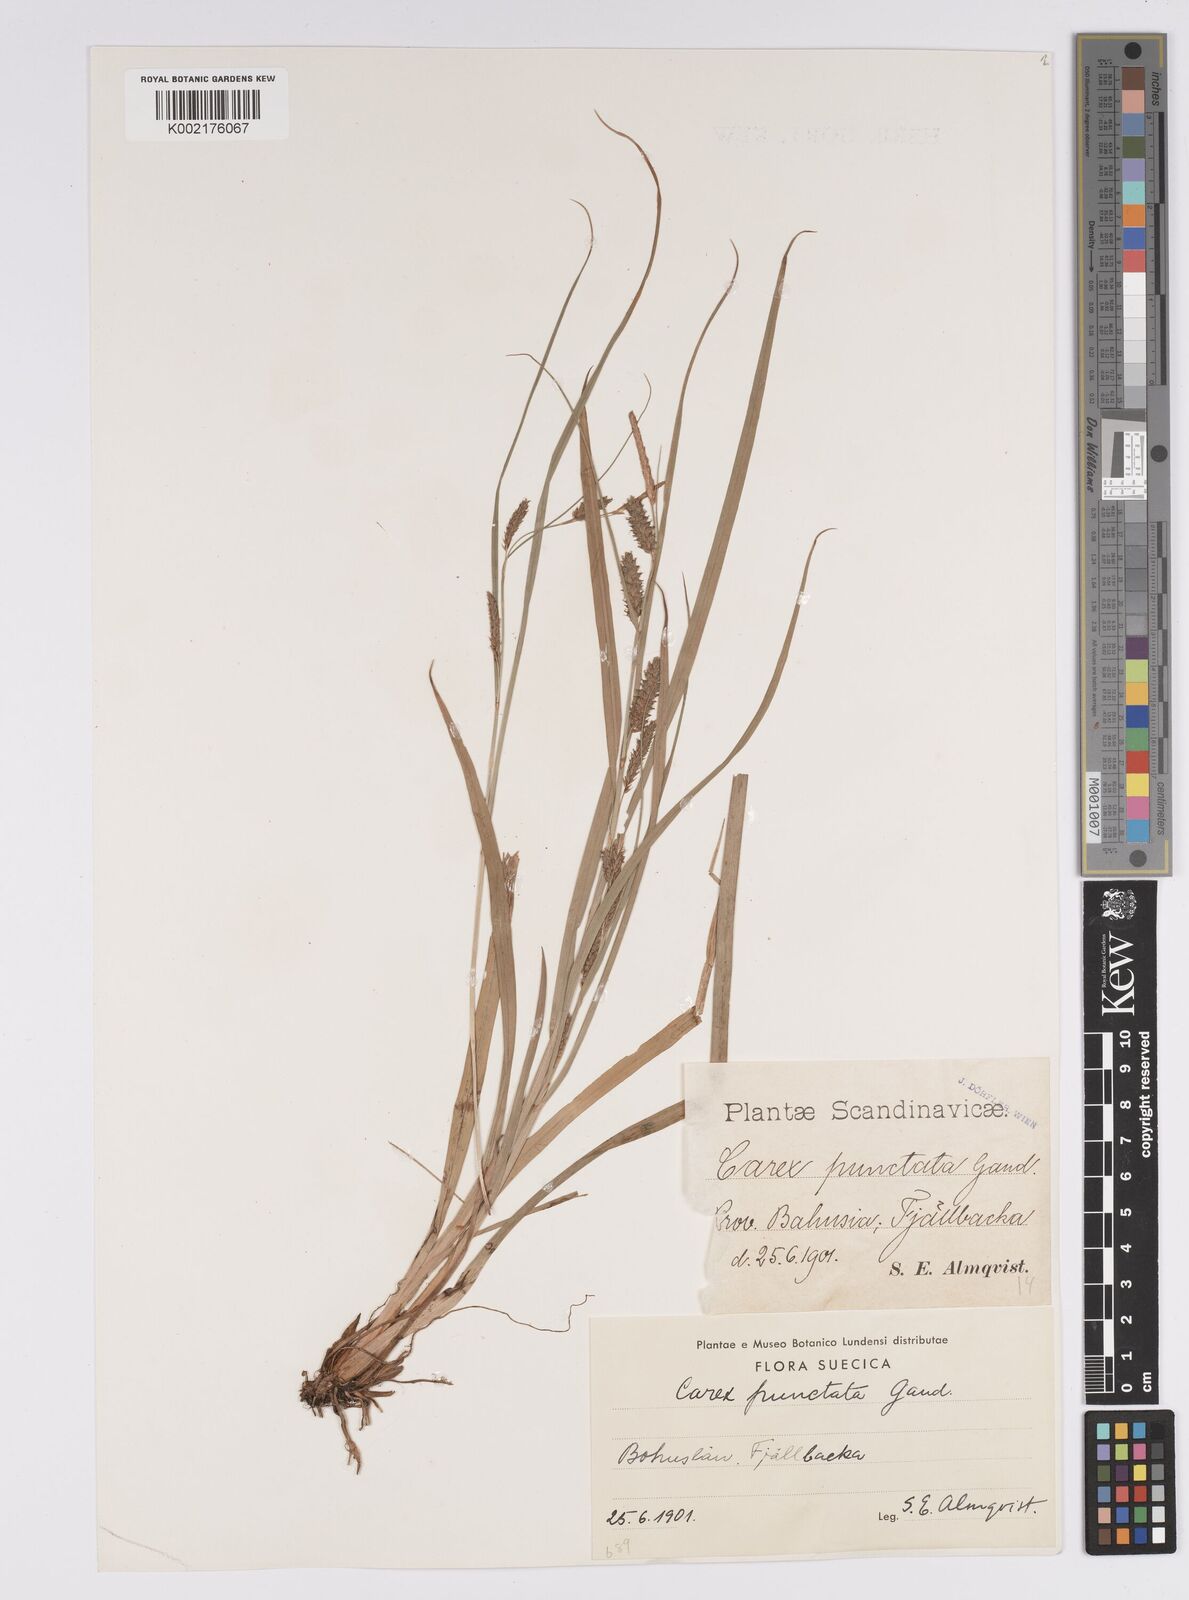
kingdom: Plantae
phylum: Tracheophyta
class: Liliopsida
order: Poales
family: Cyperaceae
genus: Carex
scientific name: Carex punctata
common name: Dotted sedge
